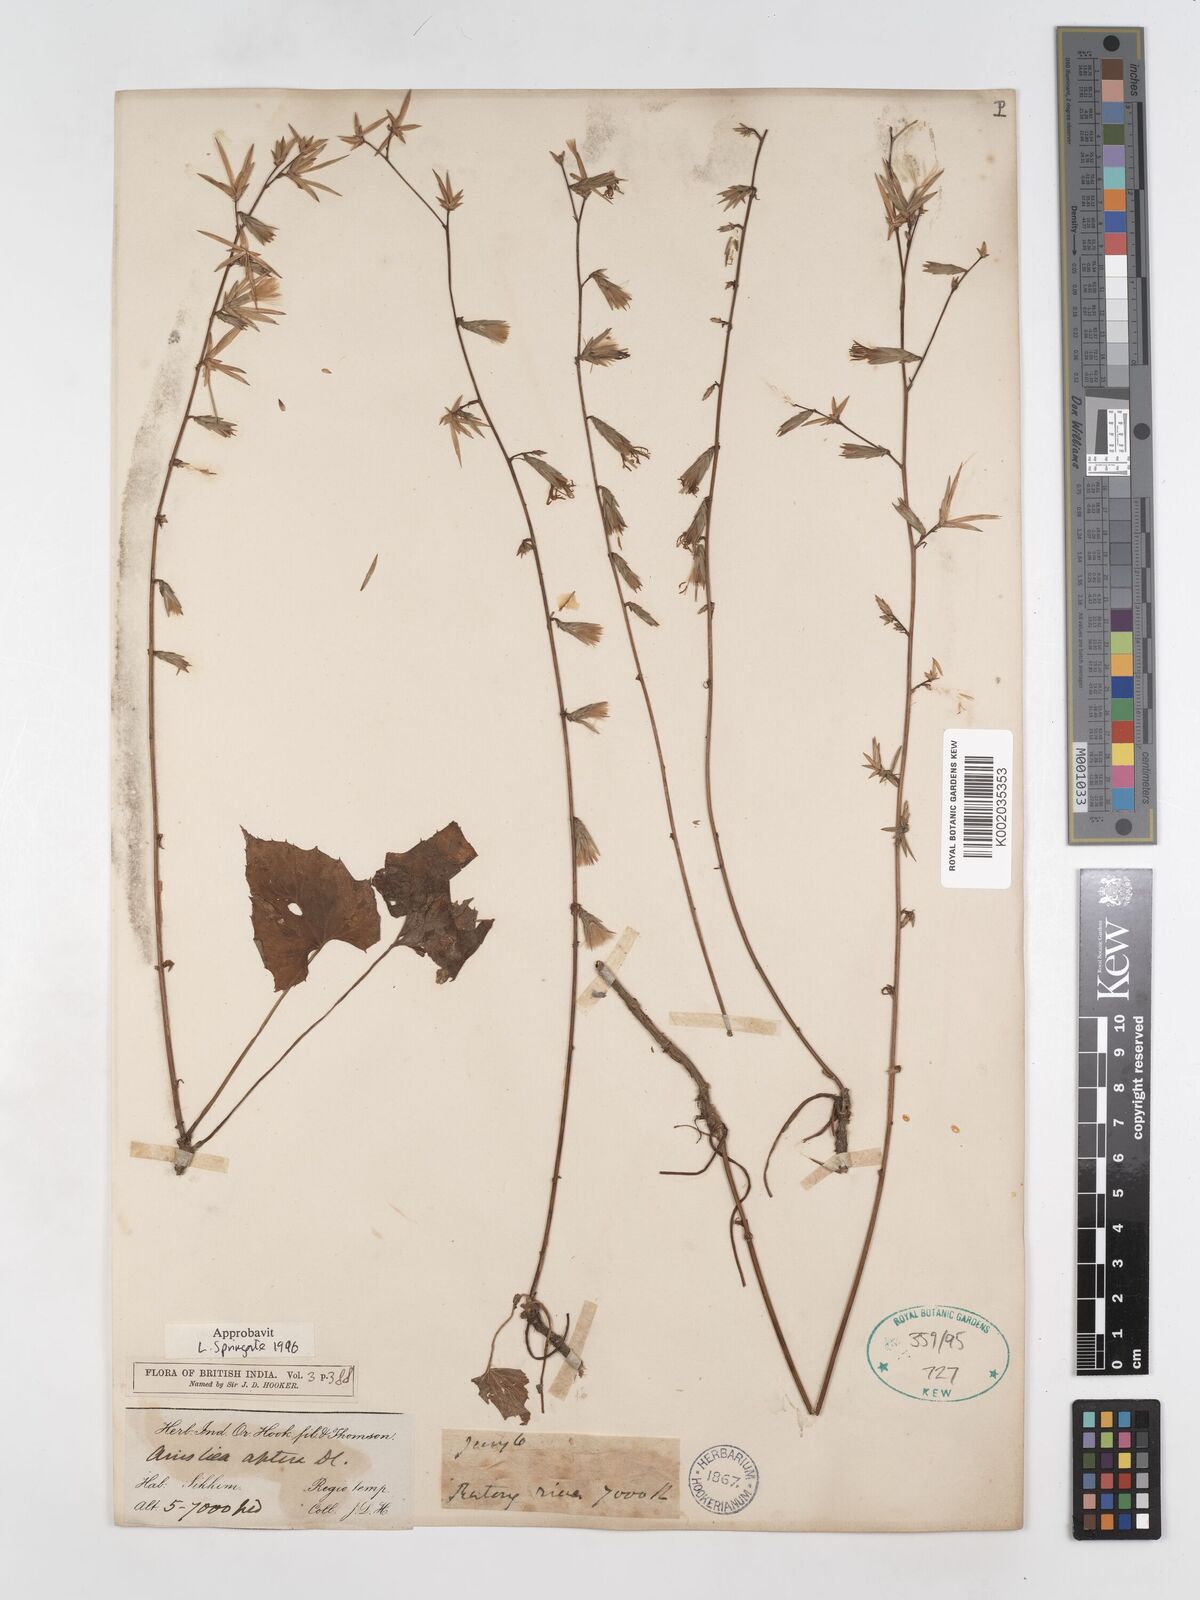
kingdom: Plantae
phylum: Tracheophyta
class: Magnoliopsida
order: Asterales
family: Asteraceae
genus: Ainsliaea
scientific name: Ainsliaea aptera
